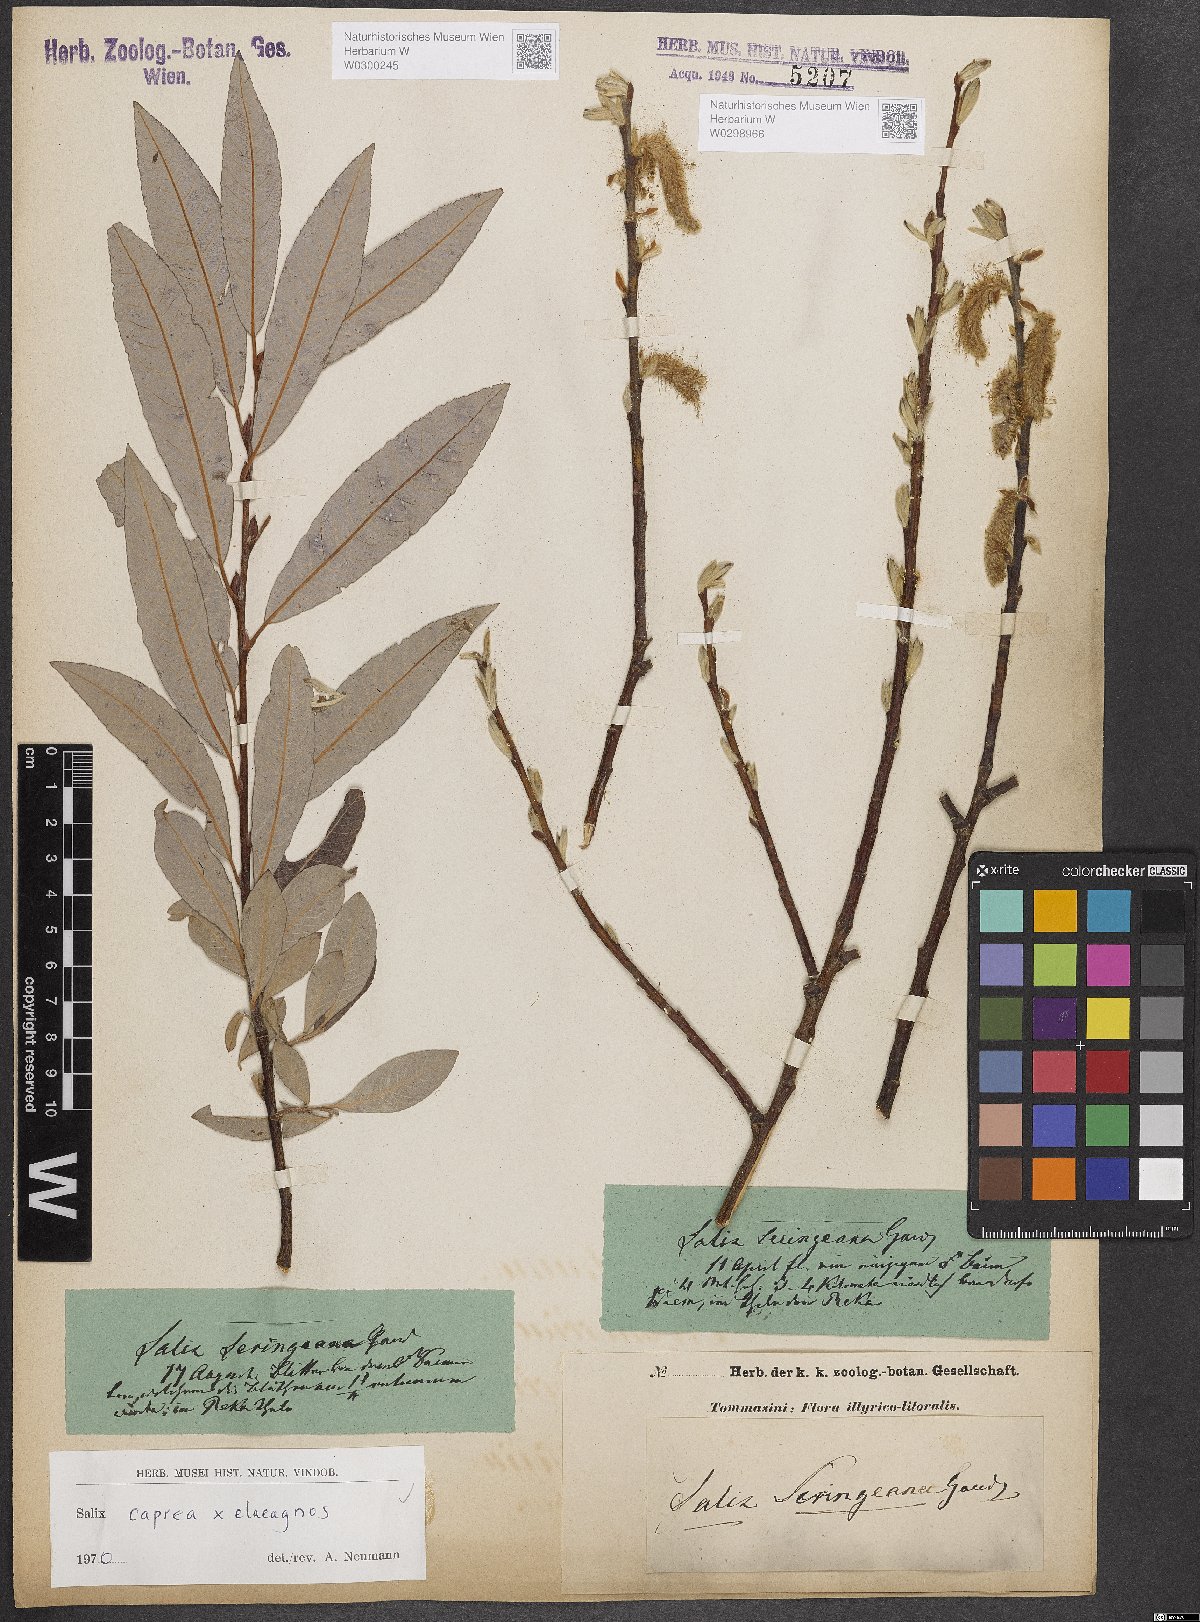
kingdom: Plantae
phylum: Tracheophyta
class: Magnoliopsida
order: Malpighiales
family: Salicaceae
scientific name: Salicaceae
